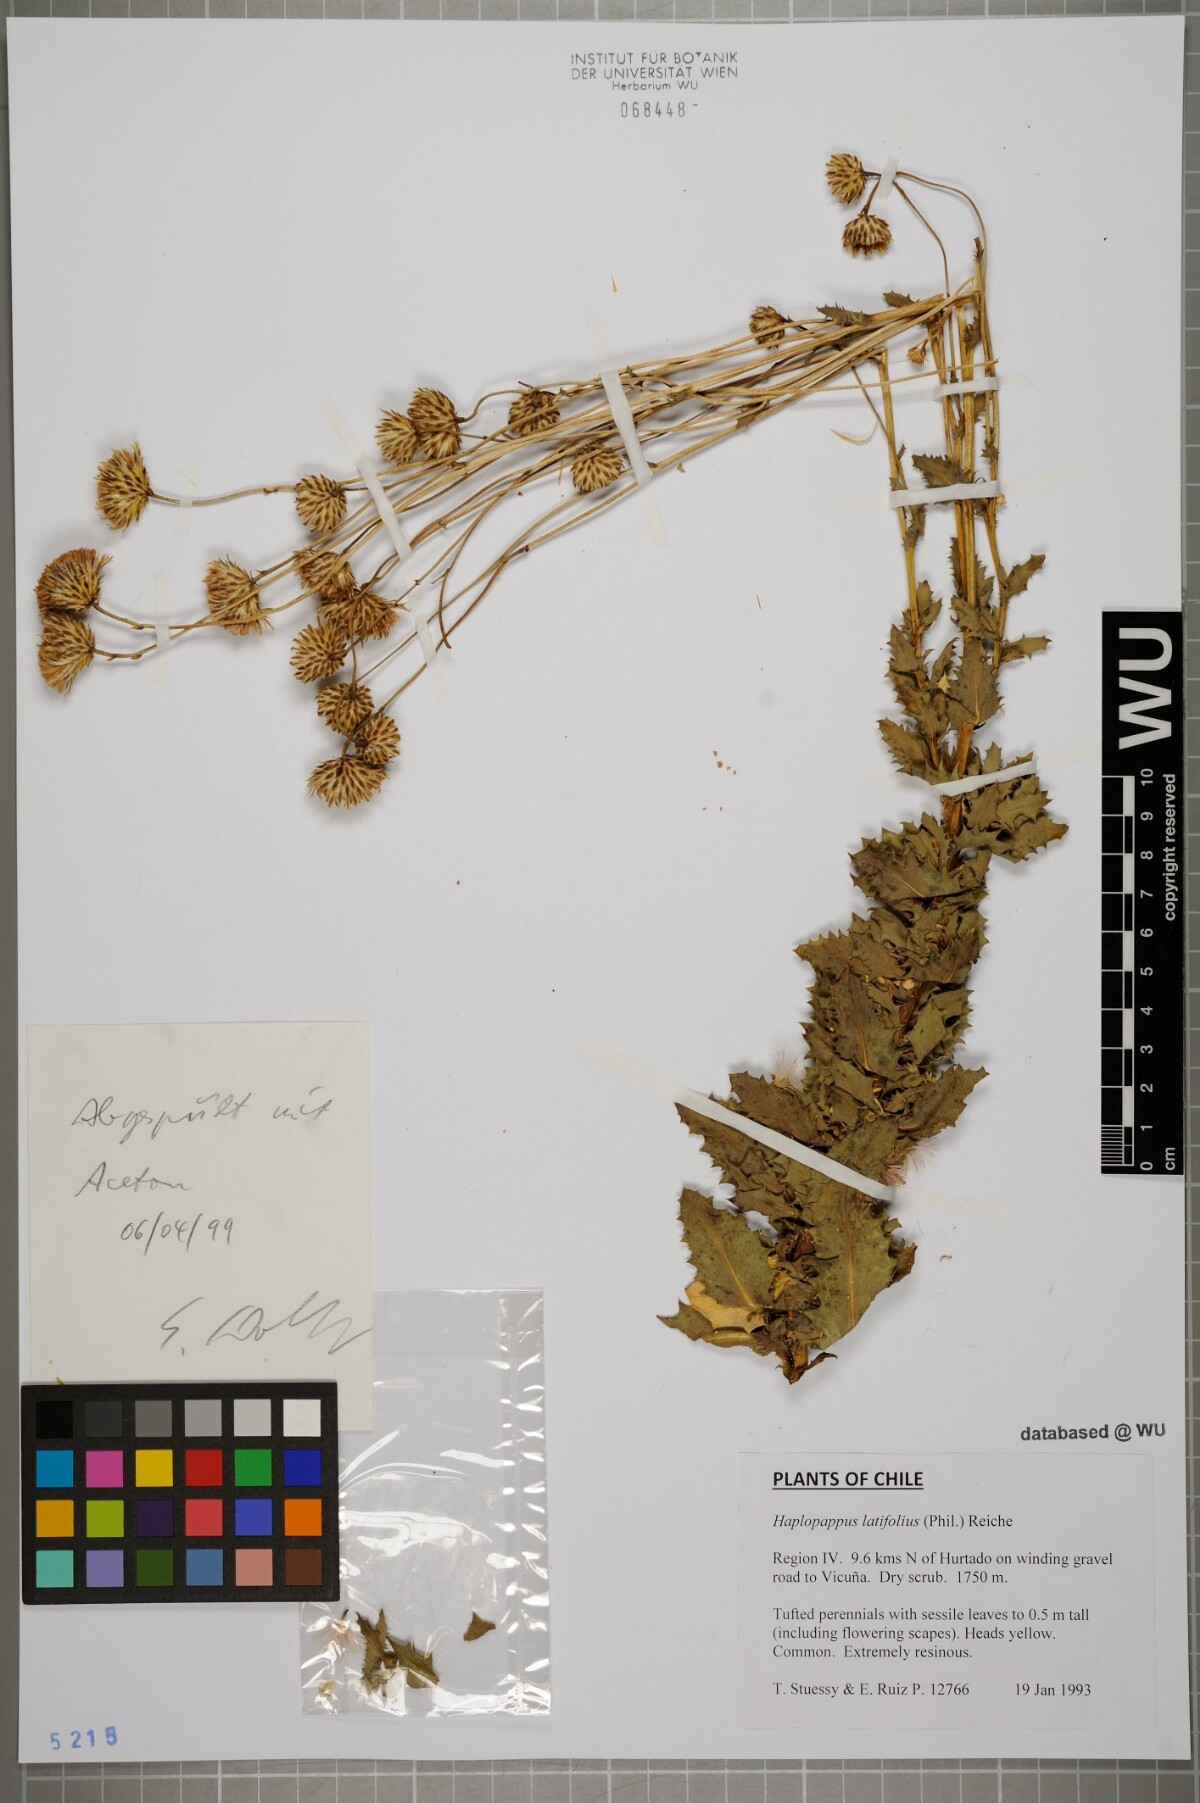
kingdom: Plantae
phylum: Tracheophyta
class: Magnoliopsida
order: Asterales
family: Asteraceae
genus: Haplopappus
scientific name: Haplopappus remyanus
